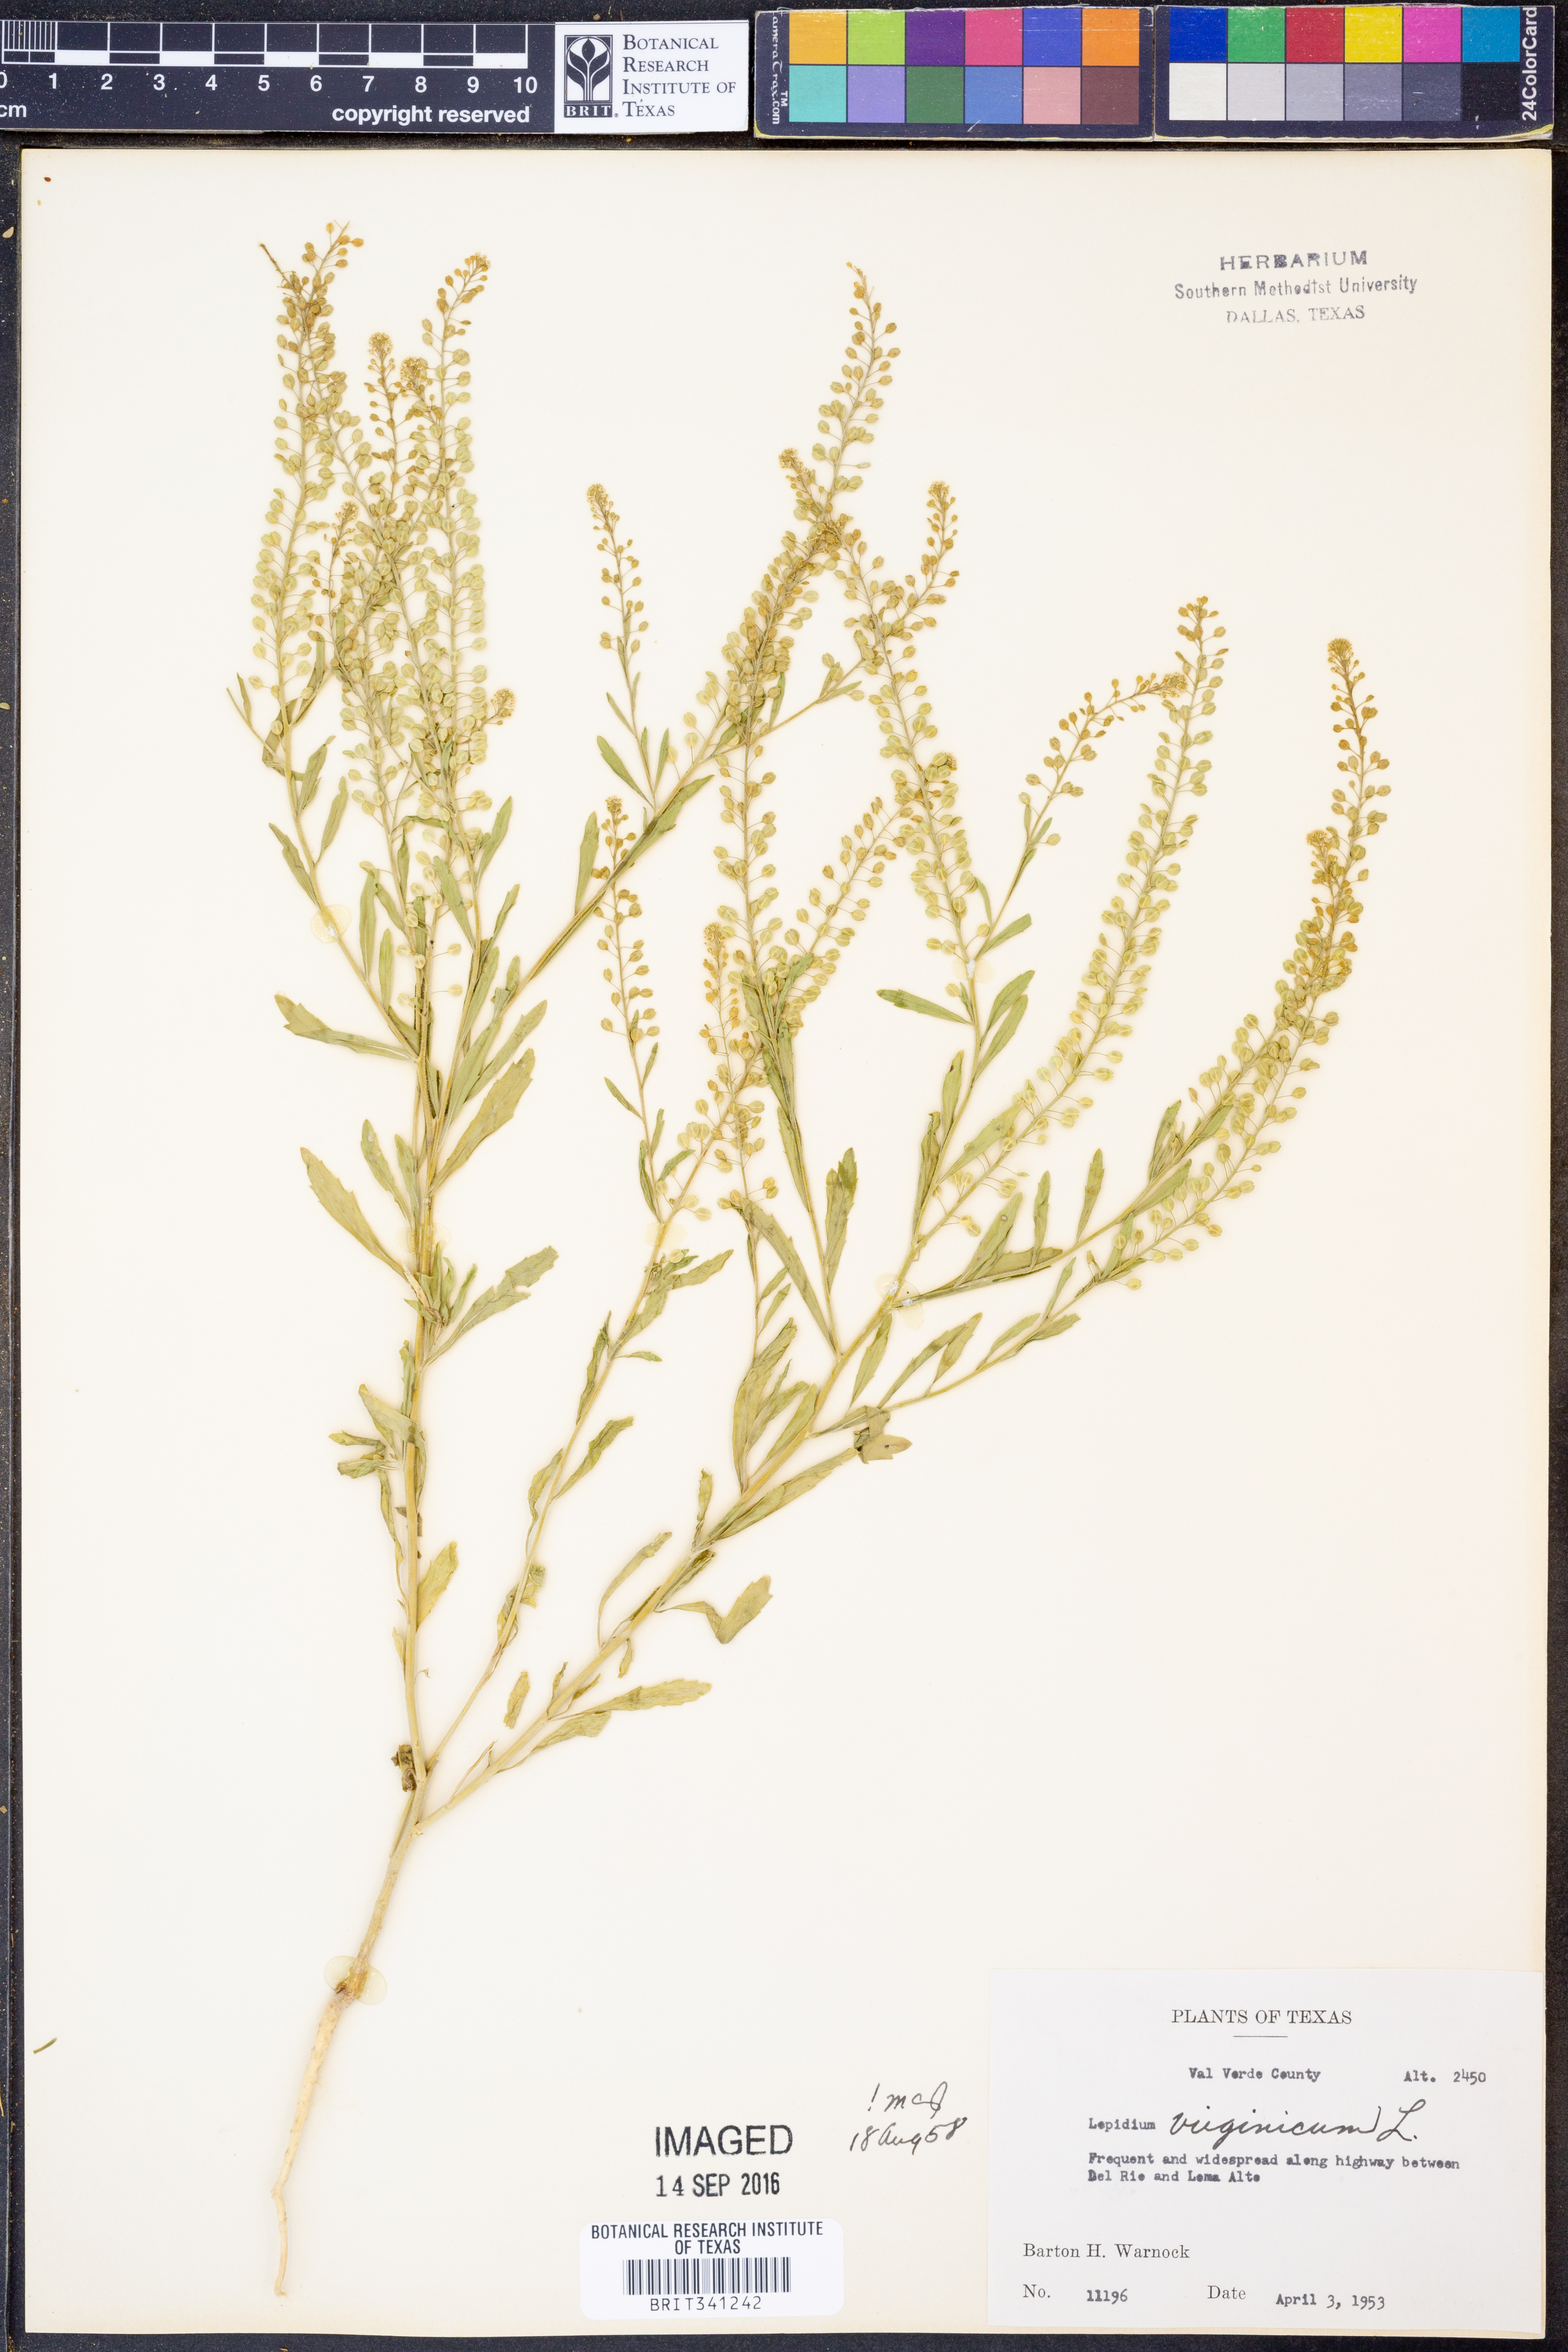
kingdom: Plantae
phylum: Tracheophyta
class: Magnoliopsida
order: Brassicales
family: Brassicaceae
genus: Lepidium
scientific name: Lepidium virginicum
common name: Least pepperwort
